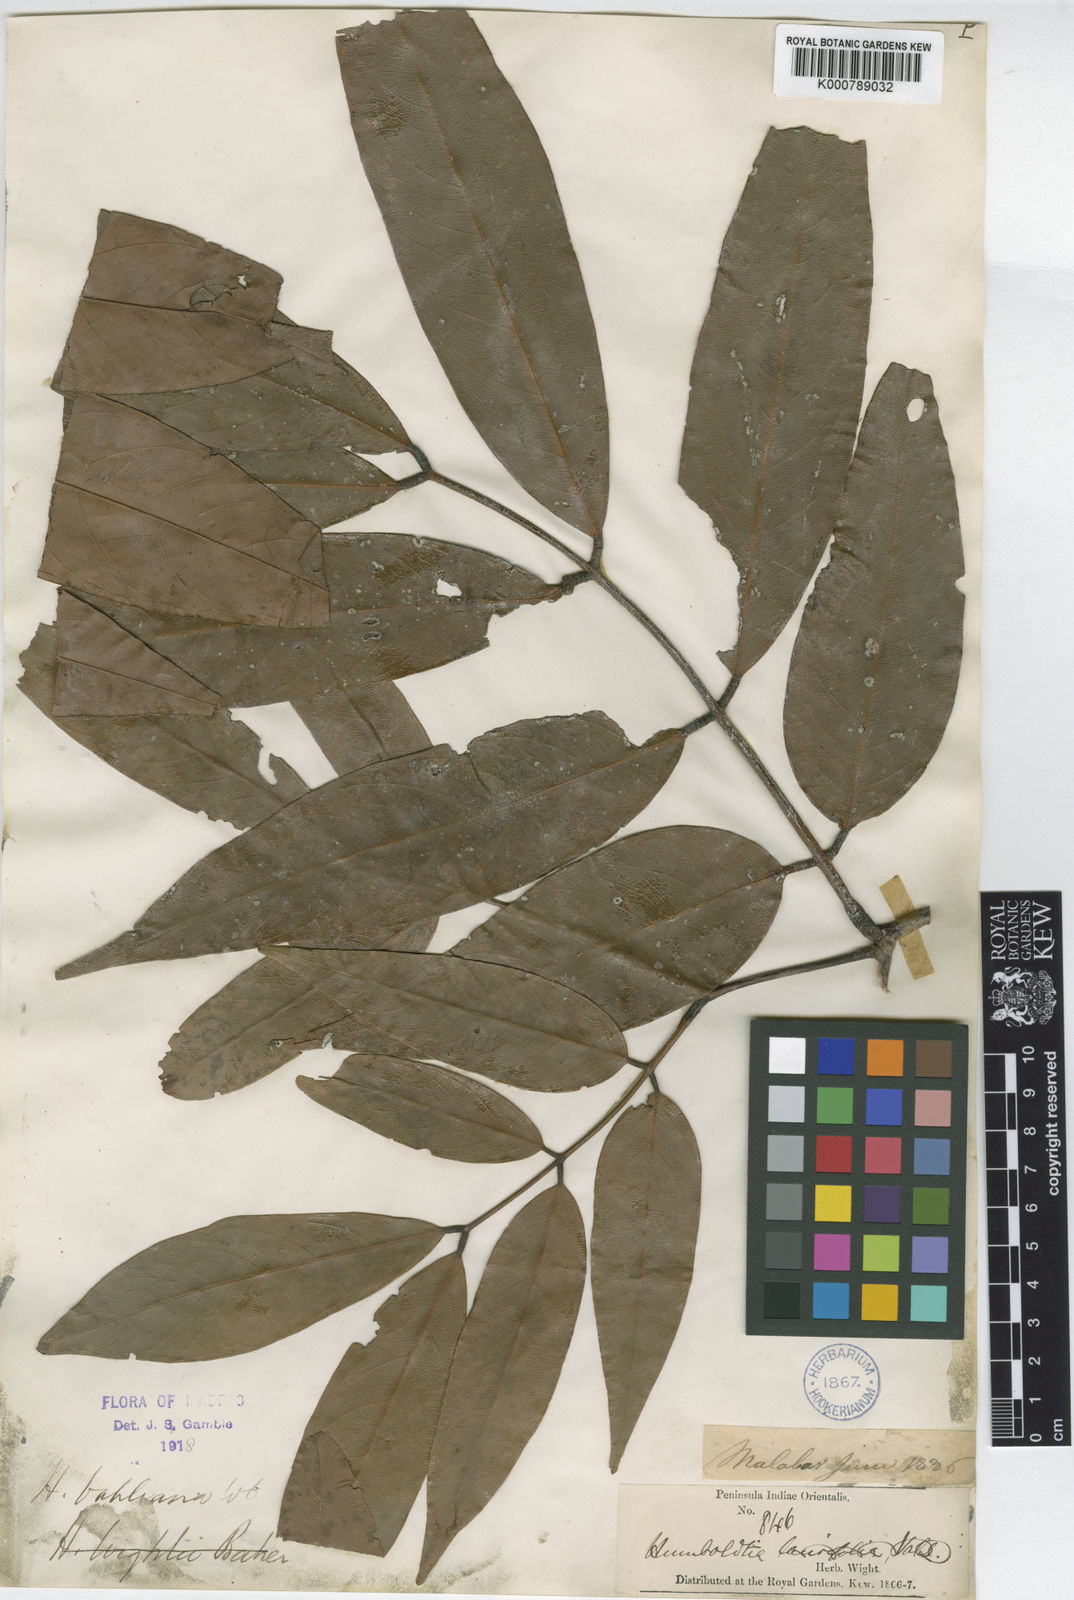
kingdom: Plantae
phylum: Tracheophyta
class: Magnoliopsida
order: Fabales
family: Fabaceae
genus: Humboldtia
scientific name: Humboldtia vahliana
